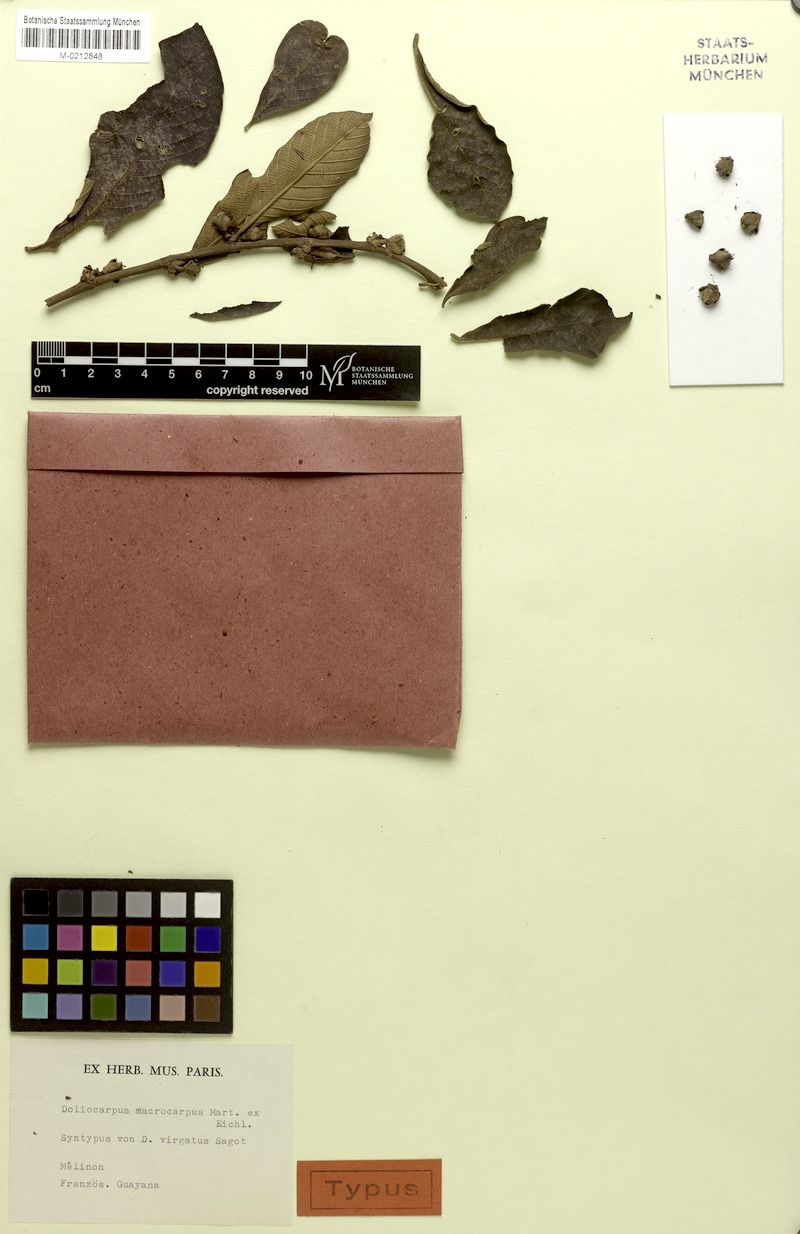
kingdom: Plantae
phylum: Tracheophyta
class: Magnoliopsida
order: Dilleniales
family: Dilleniaceae
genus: Doliocarpus
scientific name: Doliocarpus macrocarpus
